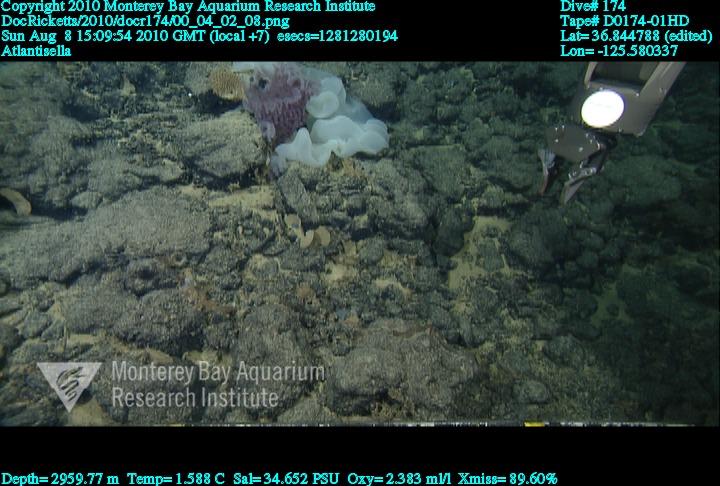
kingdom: Animalia
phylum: Porifera
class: Hexactinellida
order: Lyssacinosida
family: Euplectellidae
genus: Atlantisella
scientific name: Atlantisella
